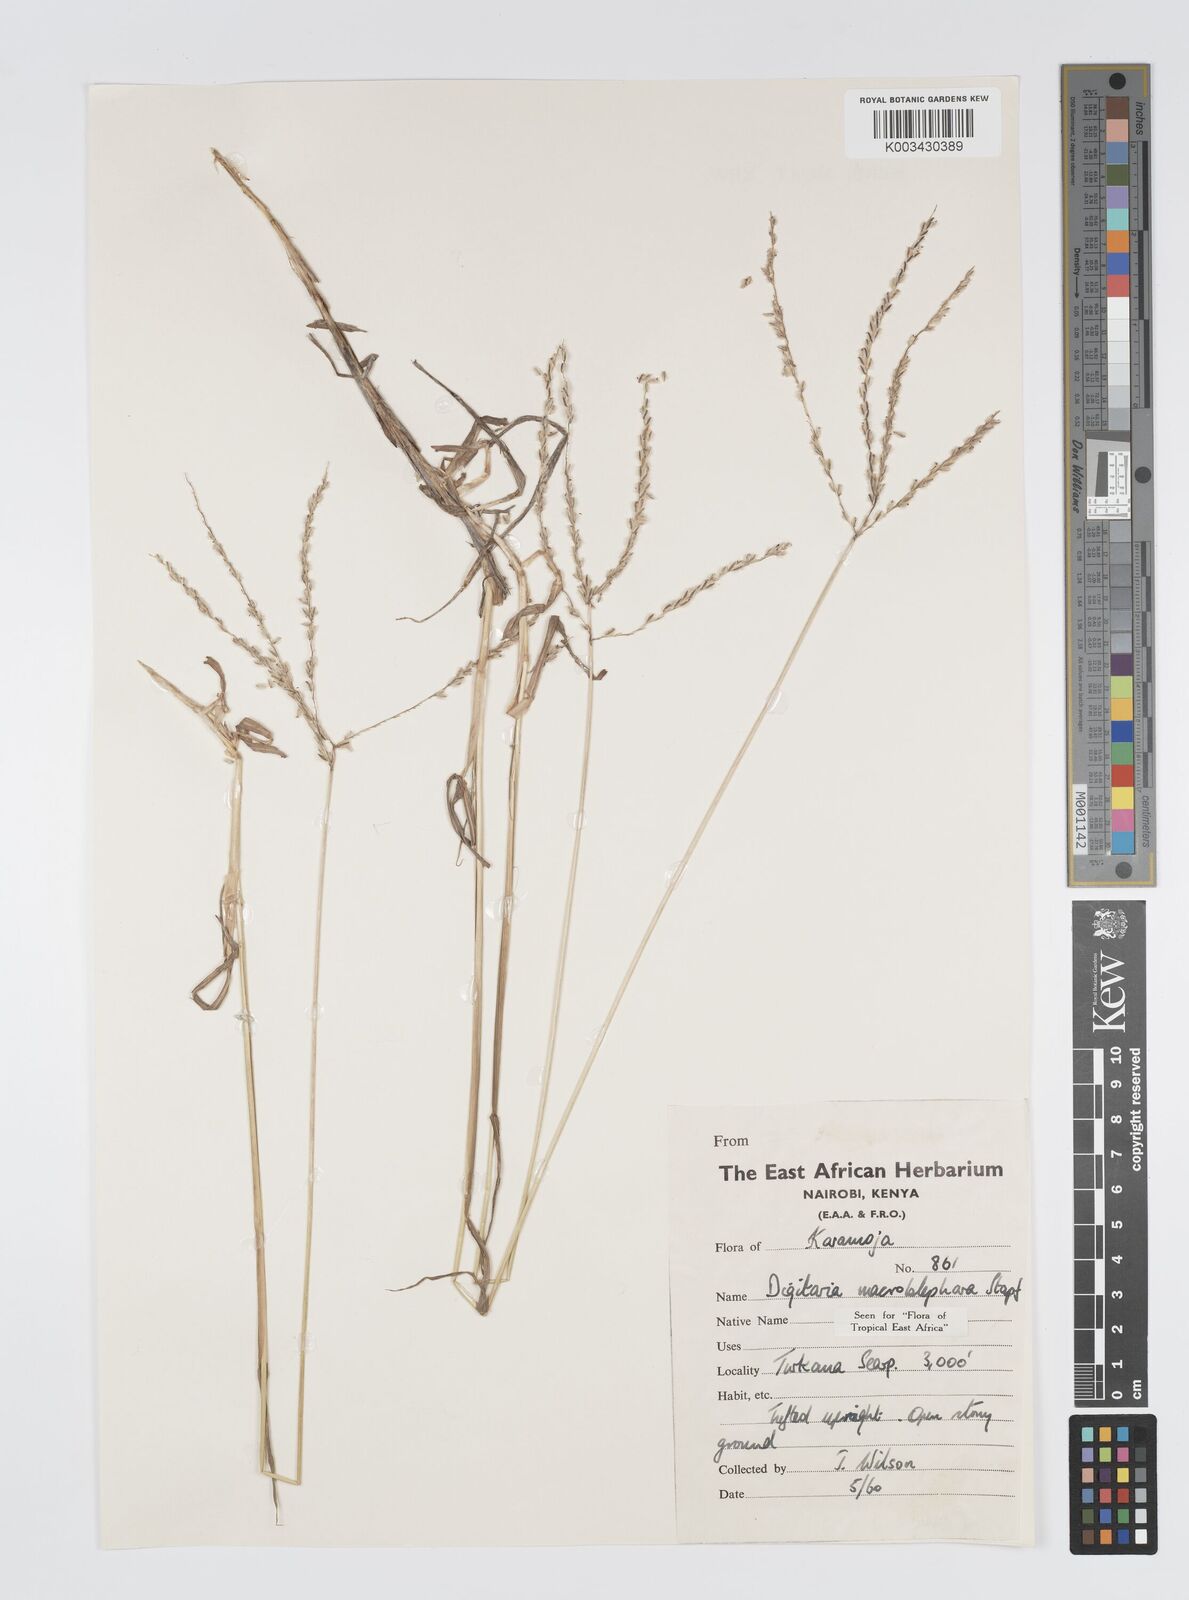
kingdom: Plantae
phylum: Tracheophyta
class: Liliopsida
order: Poales
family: Poaceae
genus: Digitaria
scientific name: Digitaria macroblephara
